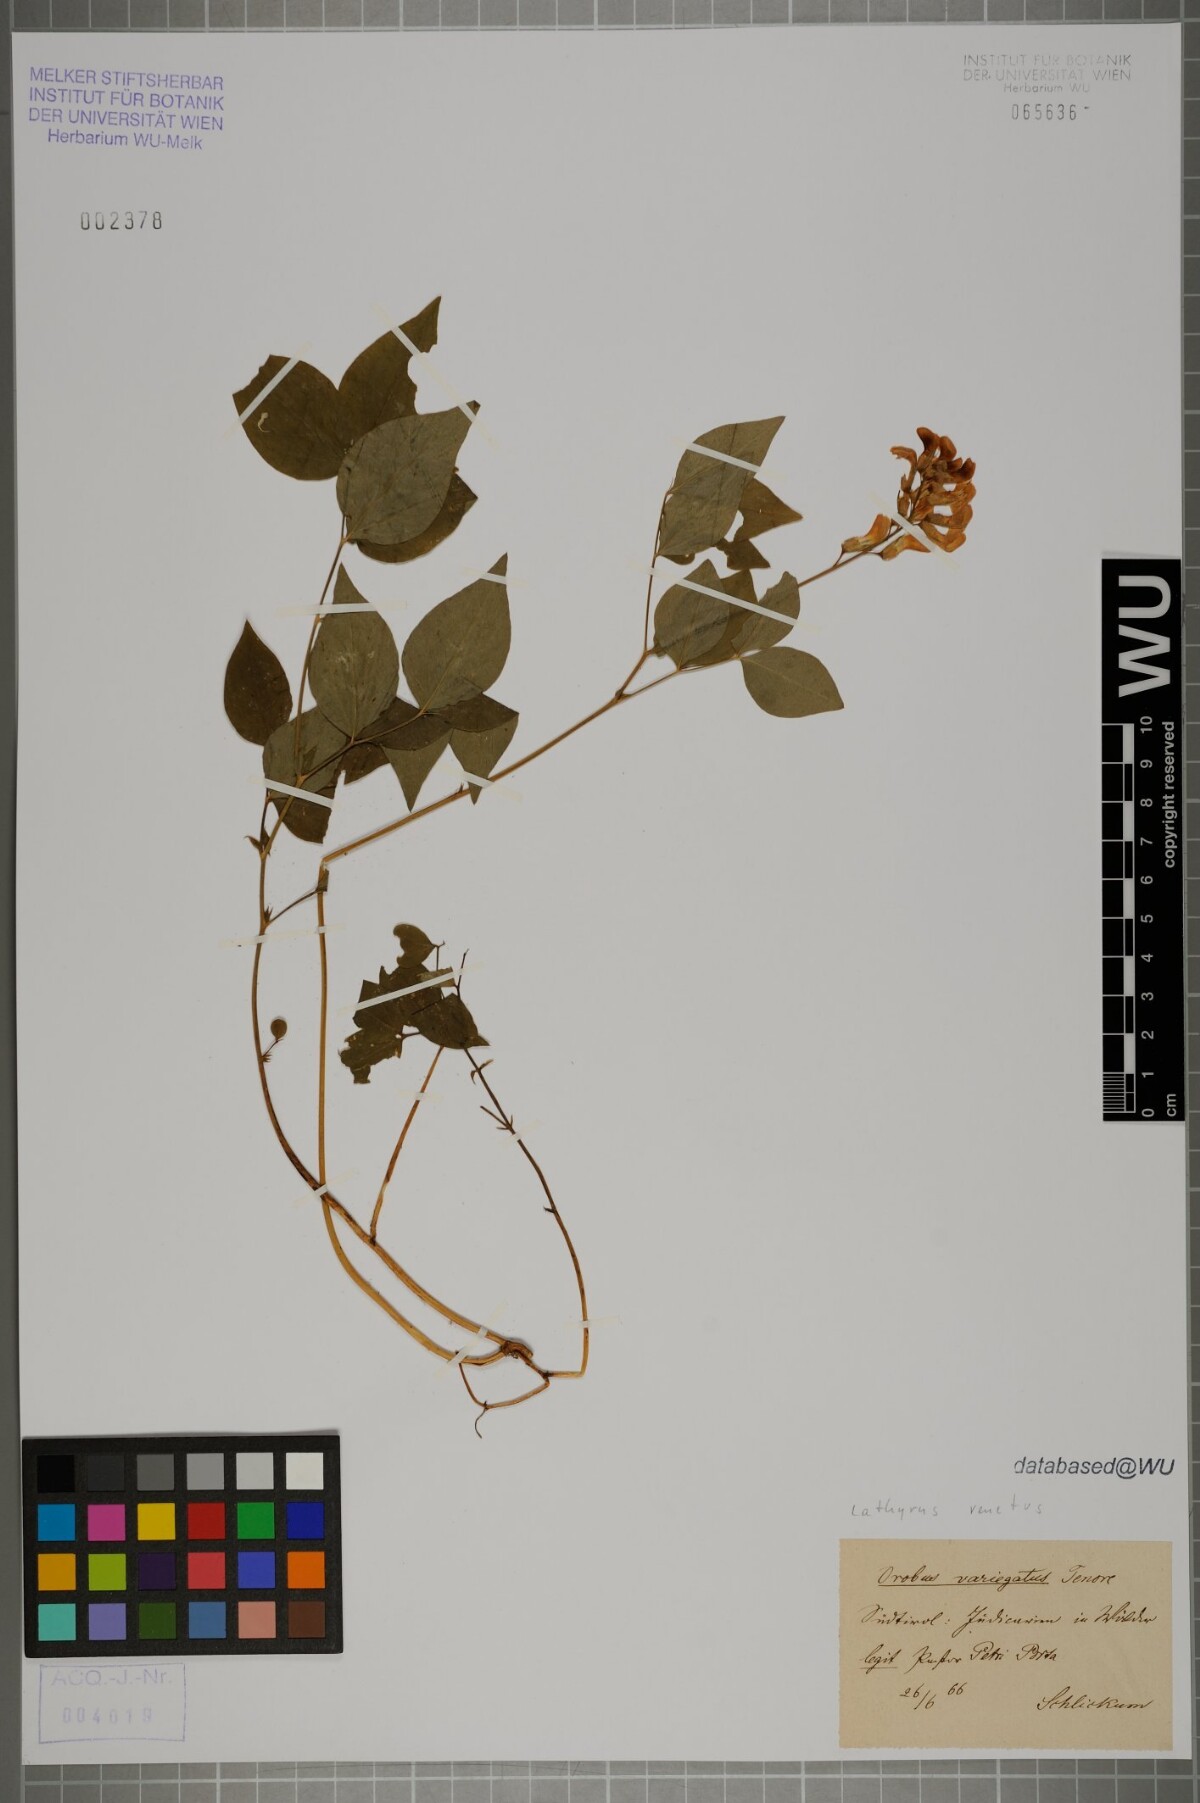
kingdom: Plantae
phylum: Tracheophyta
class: Magnoliopsida
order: Fabales
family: Fabaceae
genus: Lathyrus
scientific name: Lathyrus venetus
